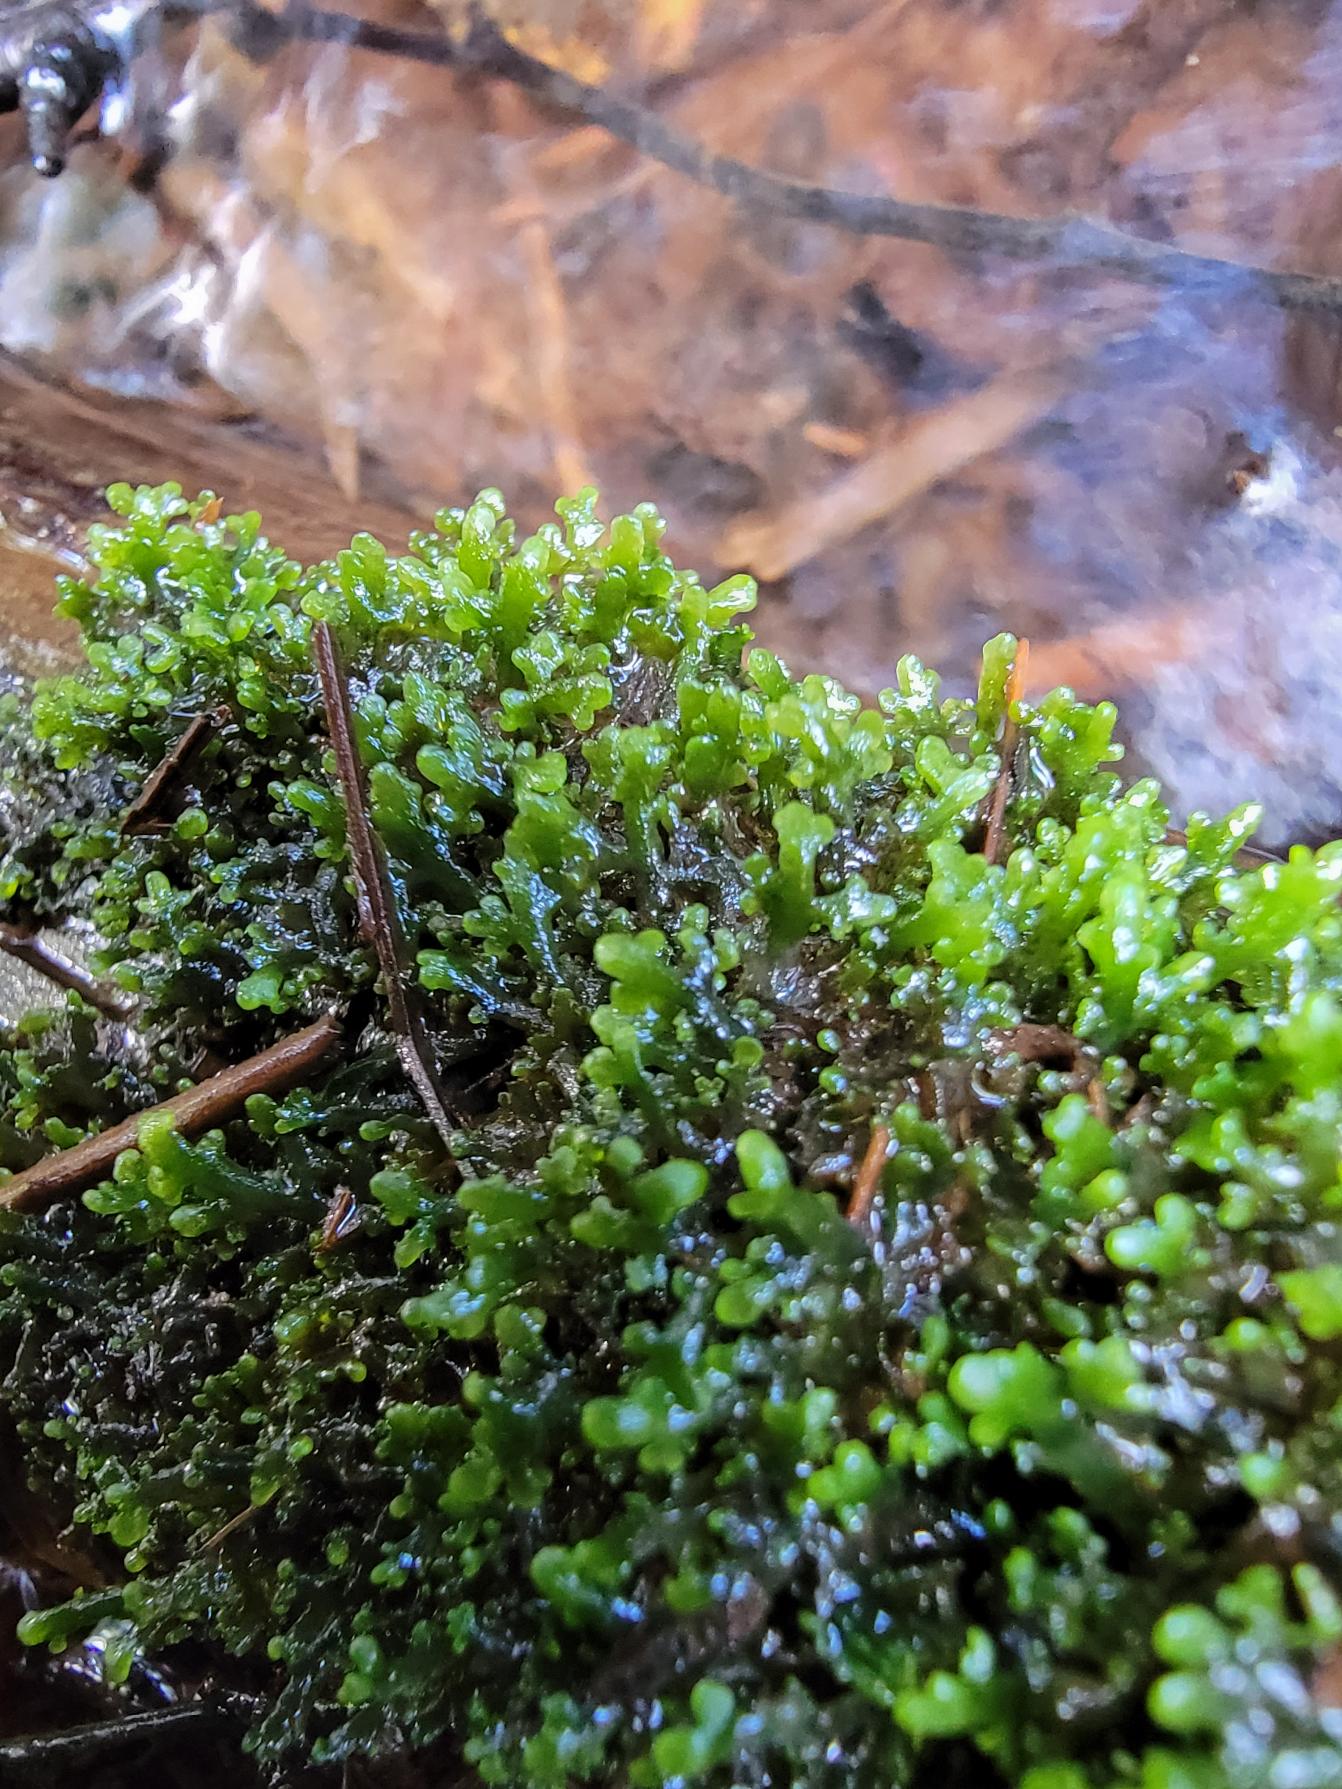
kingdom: Plantae
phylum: Marchantiophyta
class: Jungermanniopsida
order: Metzgeriales
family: Aneuraceae
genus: Riccardia
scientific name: Riccardia multifida
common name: Fjergrenet ribbeløs
